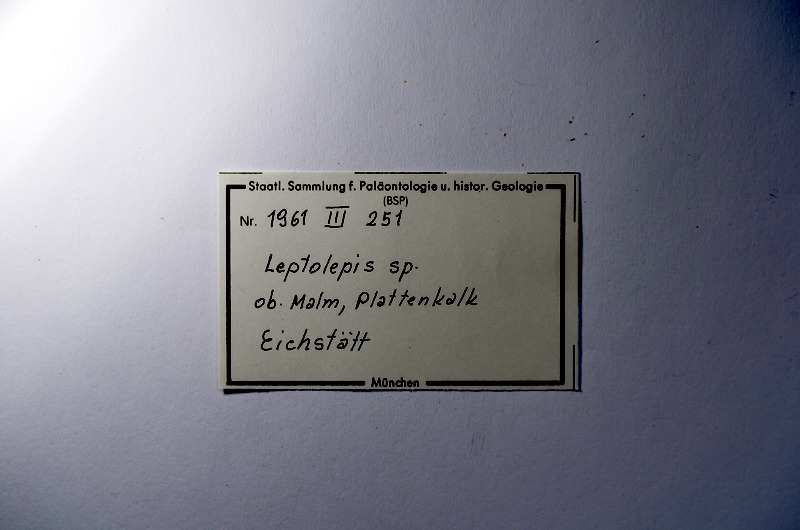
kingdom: Animalia
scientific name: Animalia
